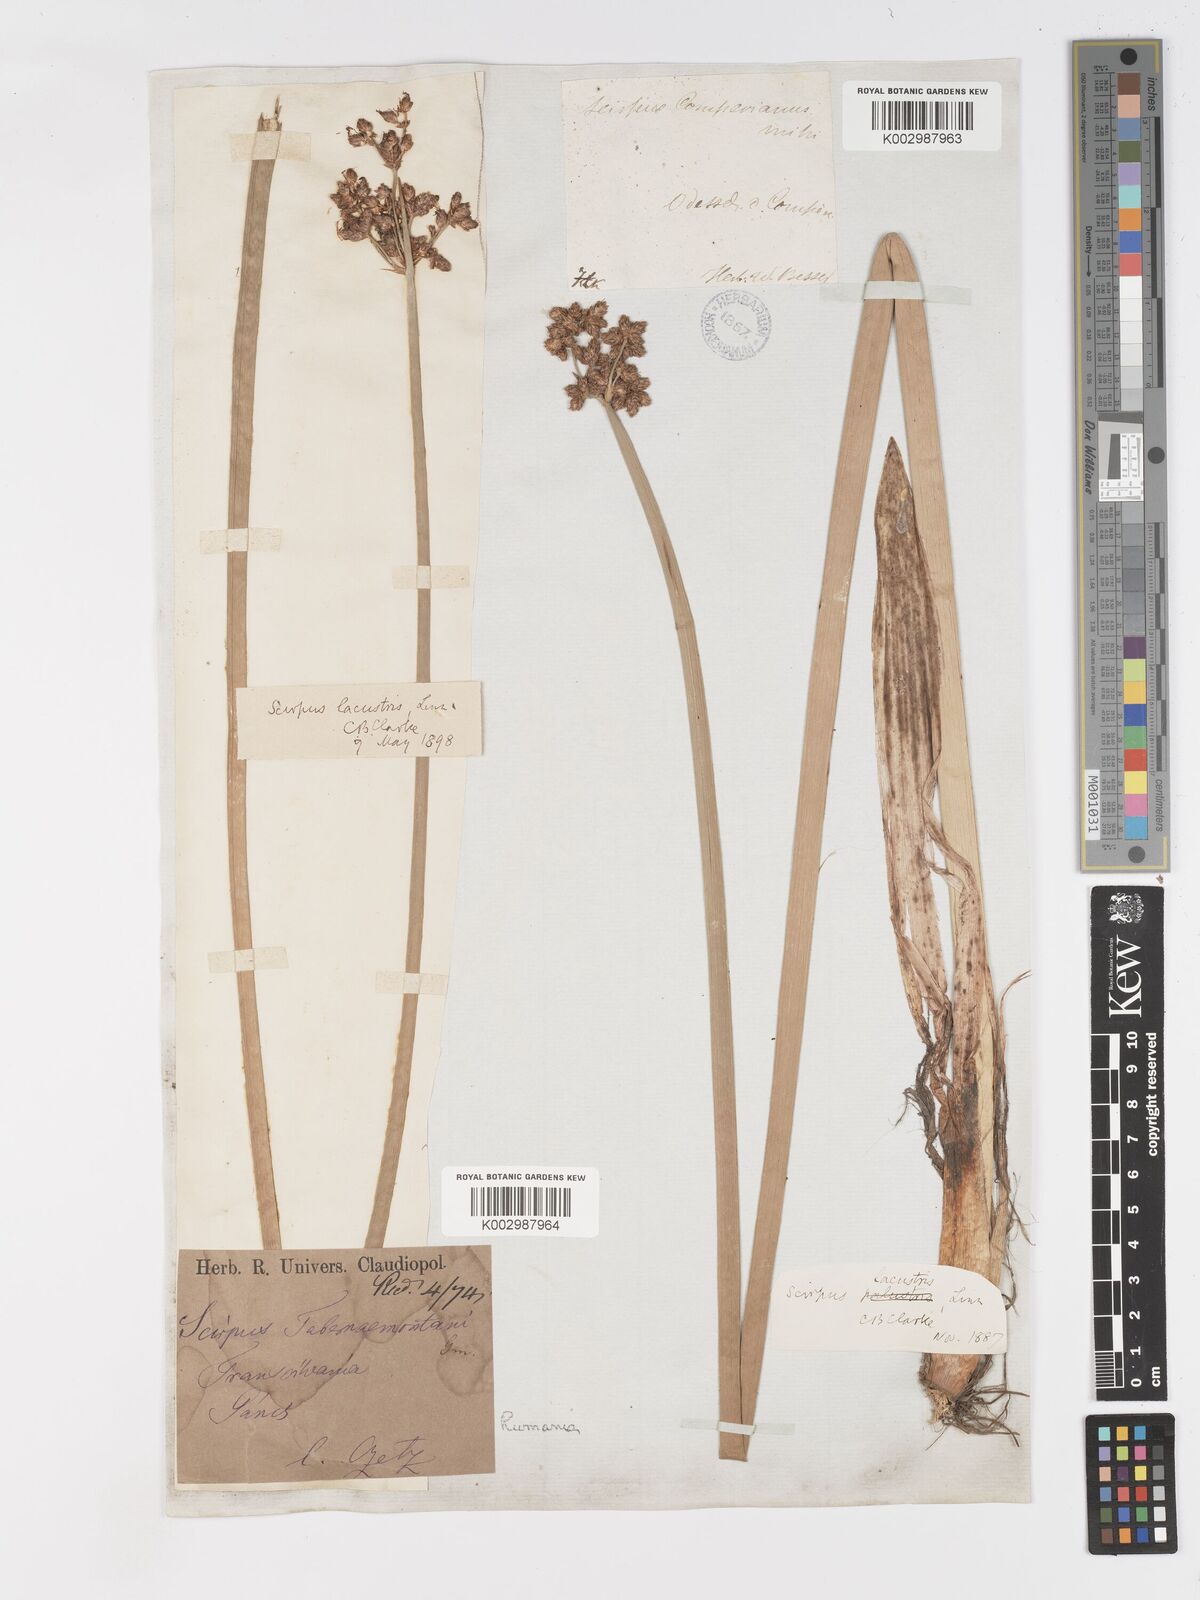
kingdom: Plantae
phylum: Tracheophyta
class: Liliopsida
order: Poales
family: Cyperaceae
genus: Schoenoplectus
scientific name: Schoenoplectus tabernaemontani
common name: Grey club-rush
